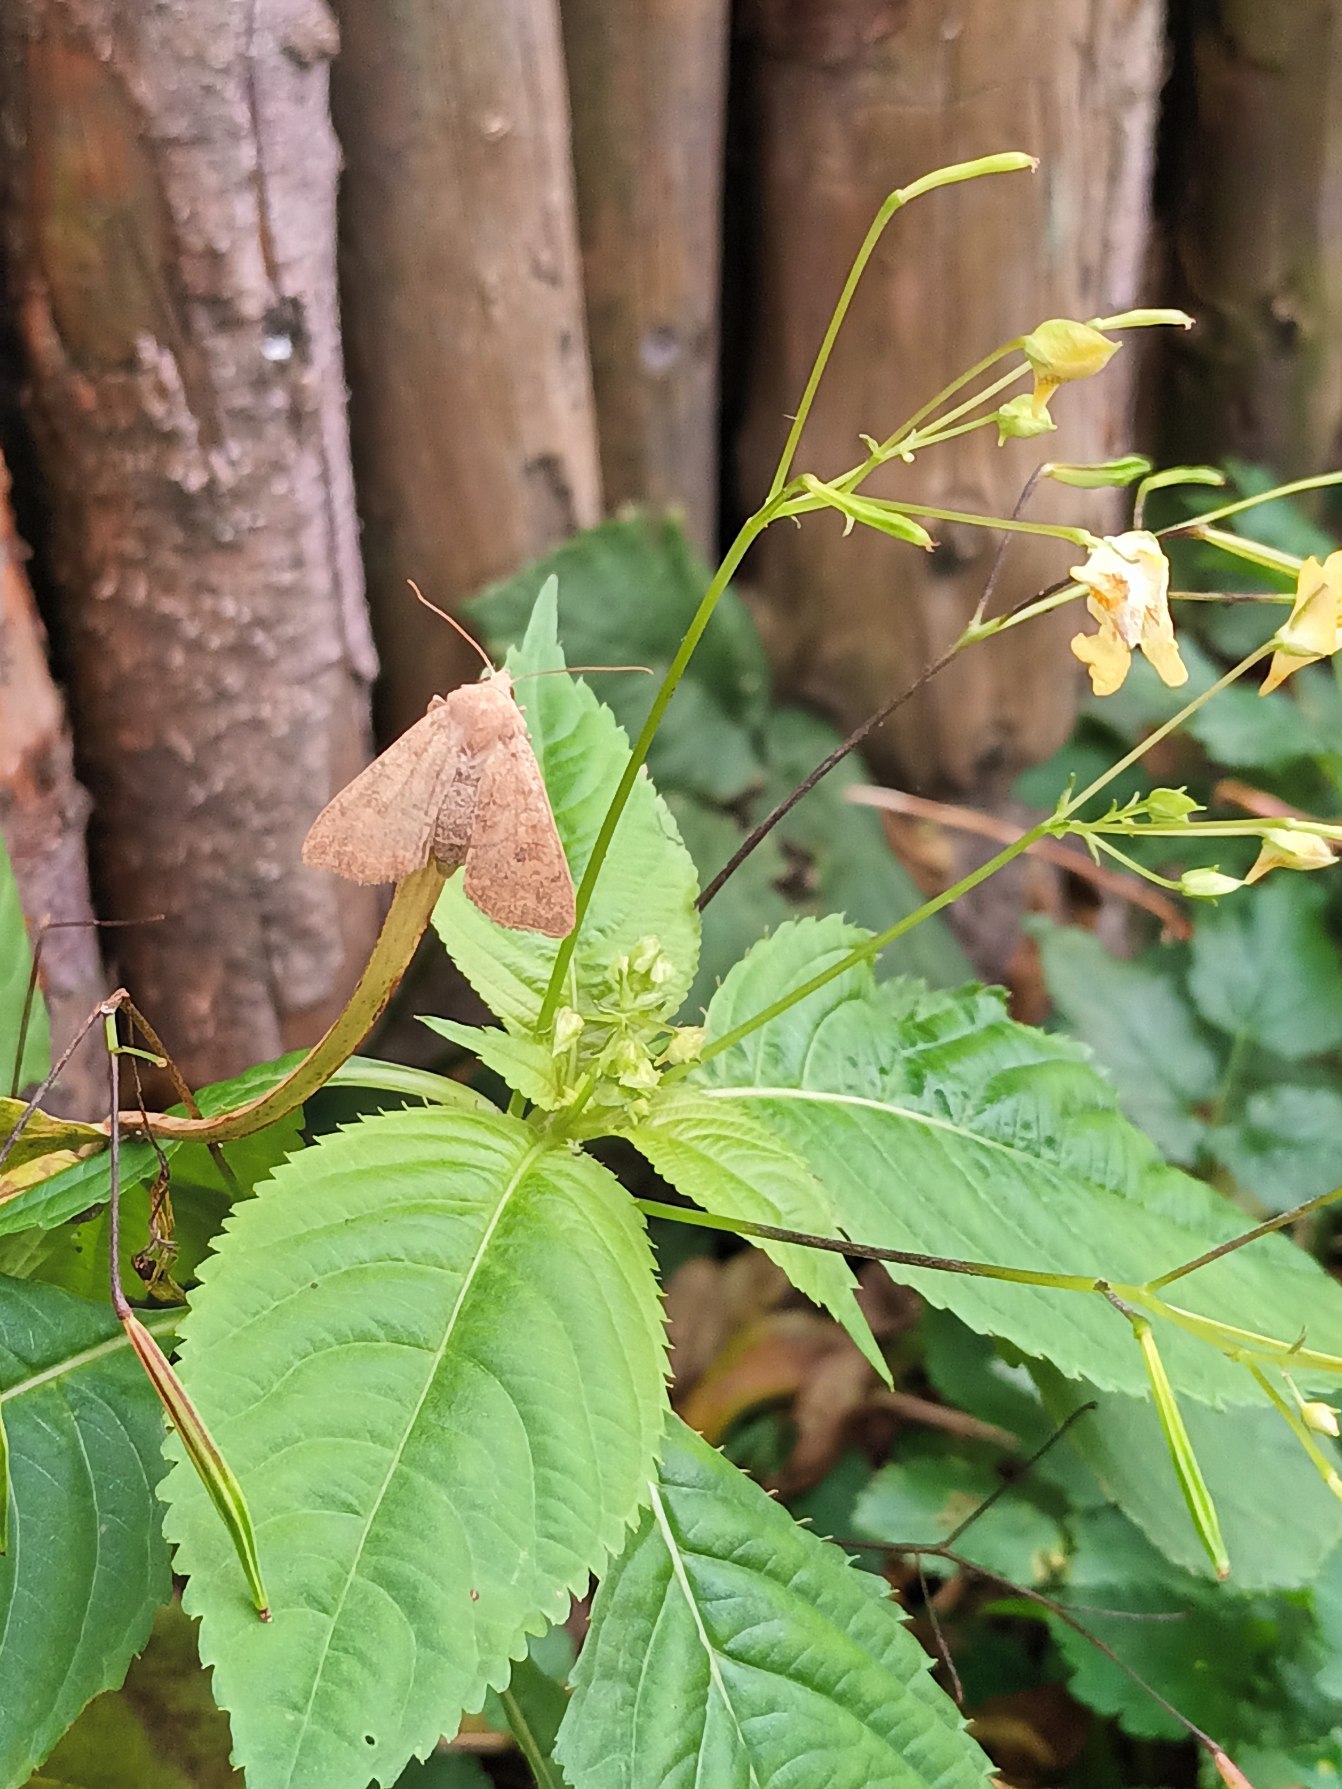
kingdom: Plantae
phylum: Tracheophyta
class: Magnoliopsida
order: Ericales
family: Balsaminaceae
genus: Impatiens
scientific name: Impatiens parviflora
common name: Småblomstret balsamin
